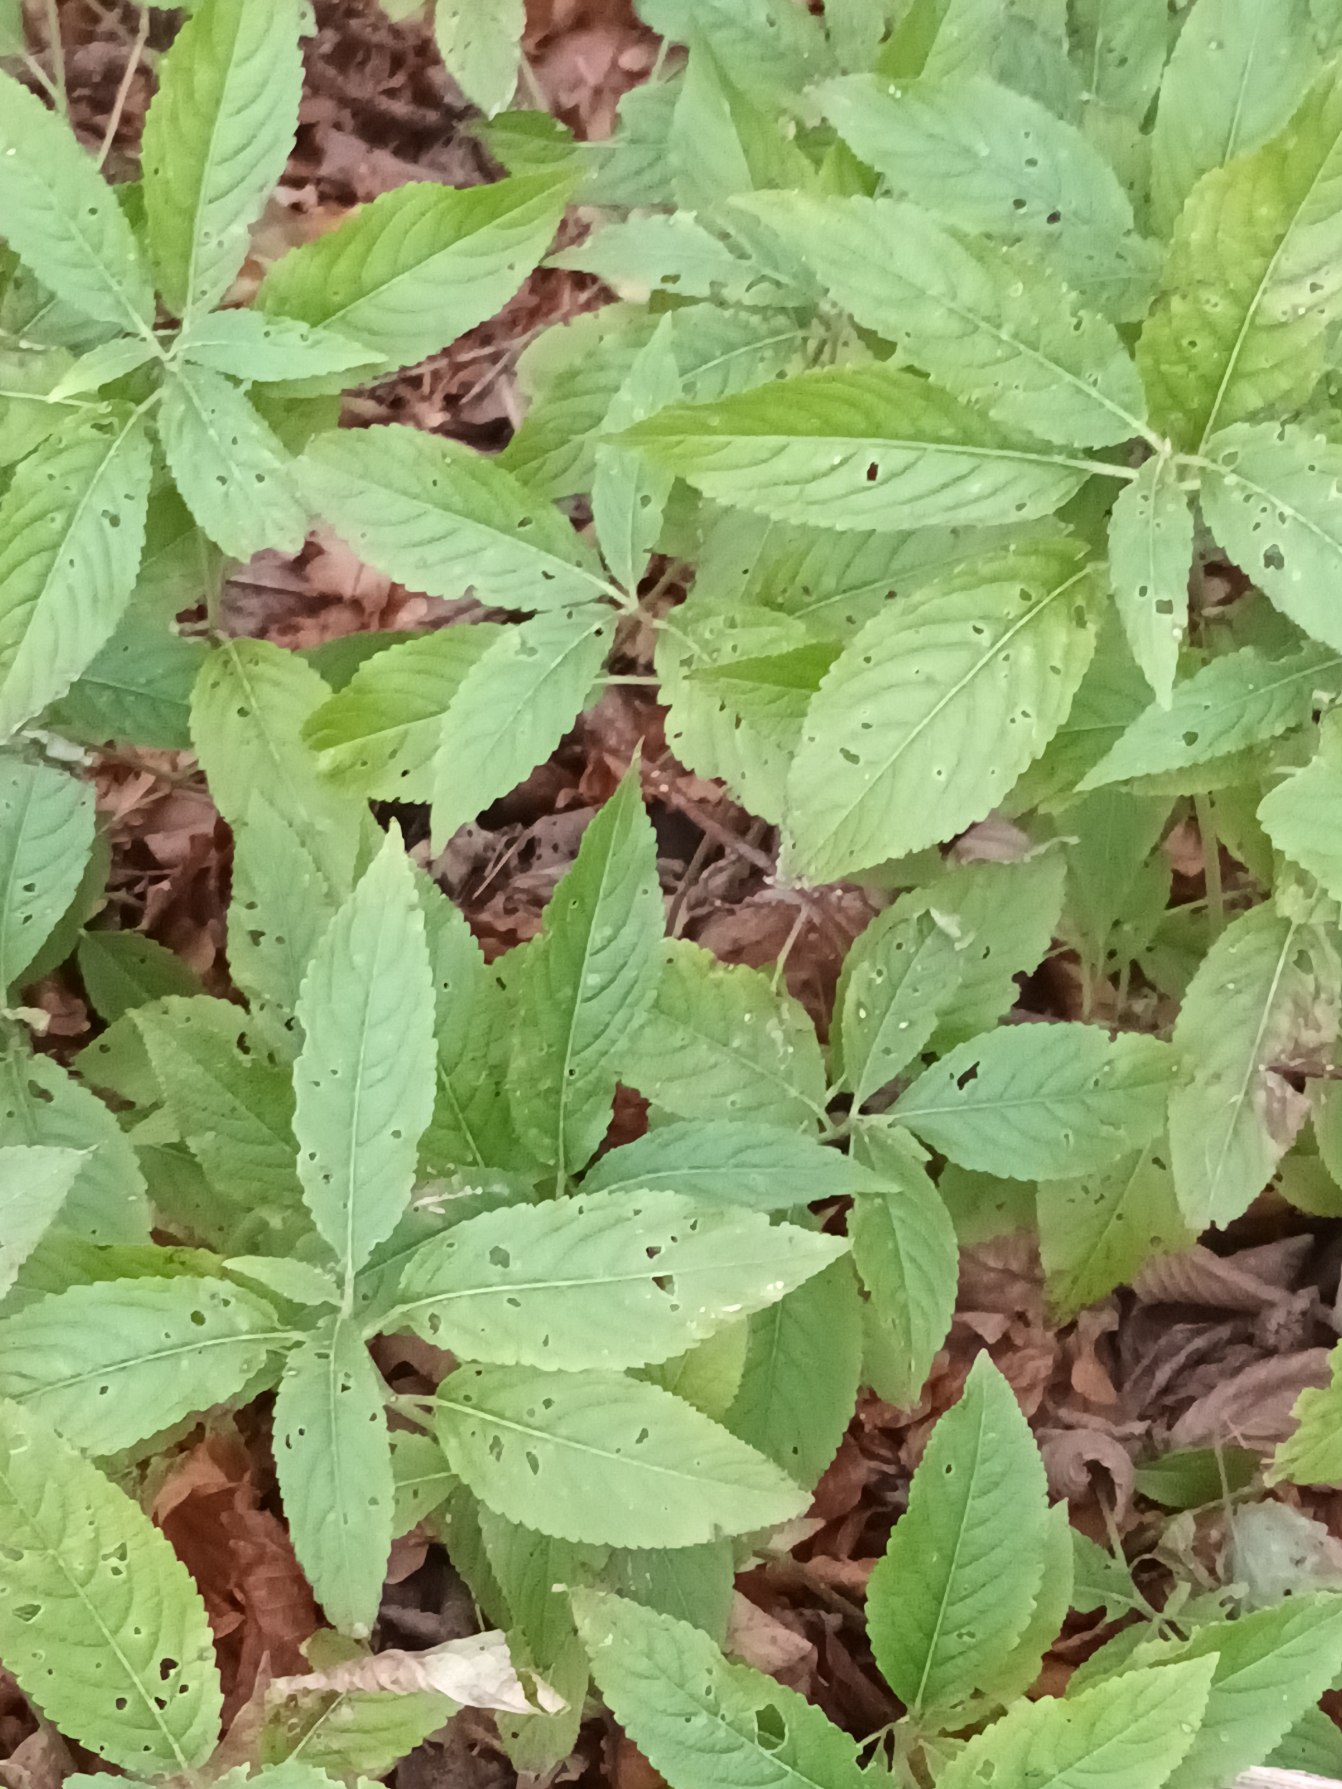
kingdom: Plantae
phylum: Tracheophyta
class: Magnoliopsida
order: Malpighiales
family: Euphorbiaceae
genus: Mercurialis
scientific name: Mercurialis perennis
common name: Almindelig bingelurt
